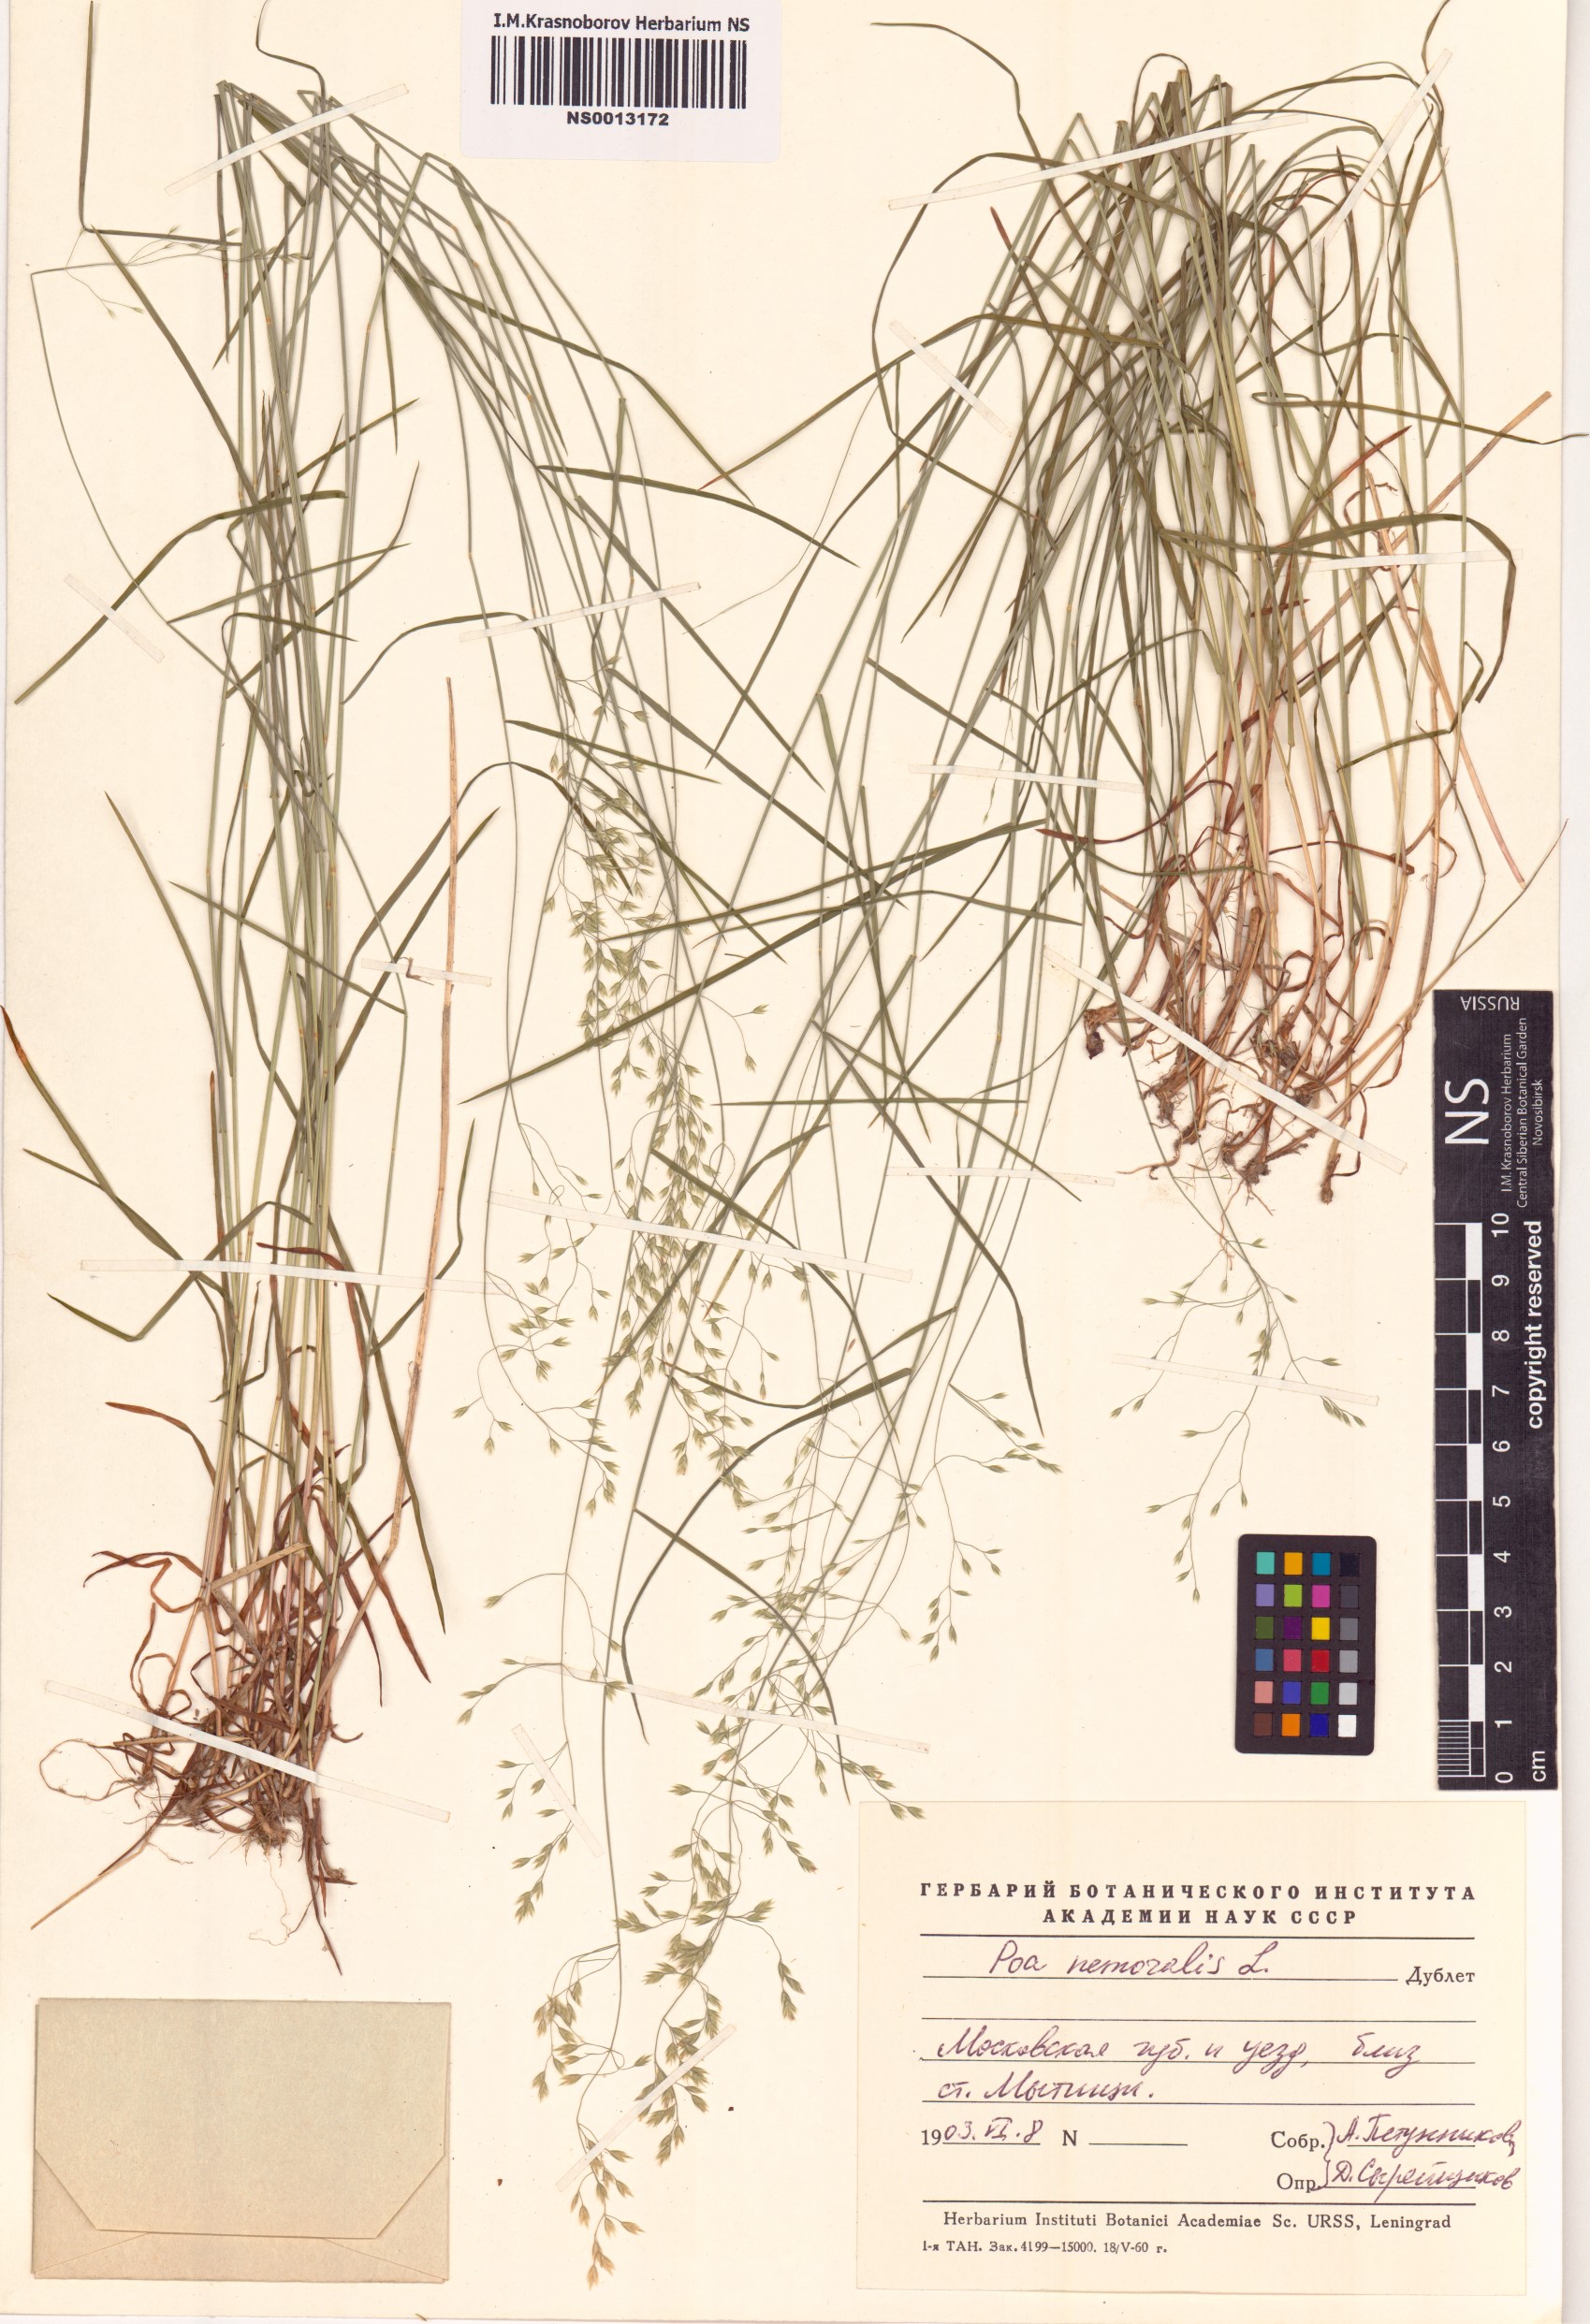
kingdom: Plantae
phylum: Tracheophyta
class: Liliopsida
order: Poales
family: Poaceae
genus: Poa
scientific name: Poa nemoralis
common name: Wood bluegrass
